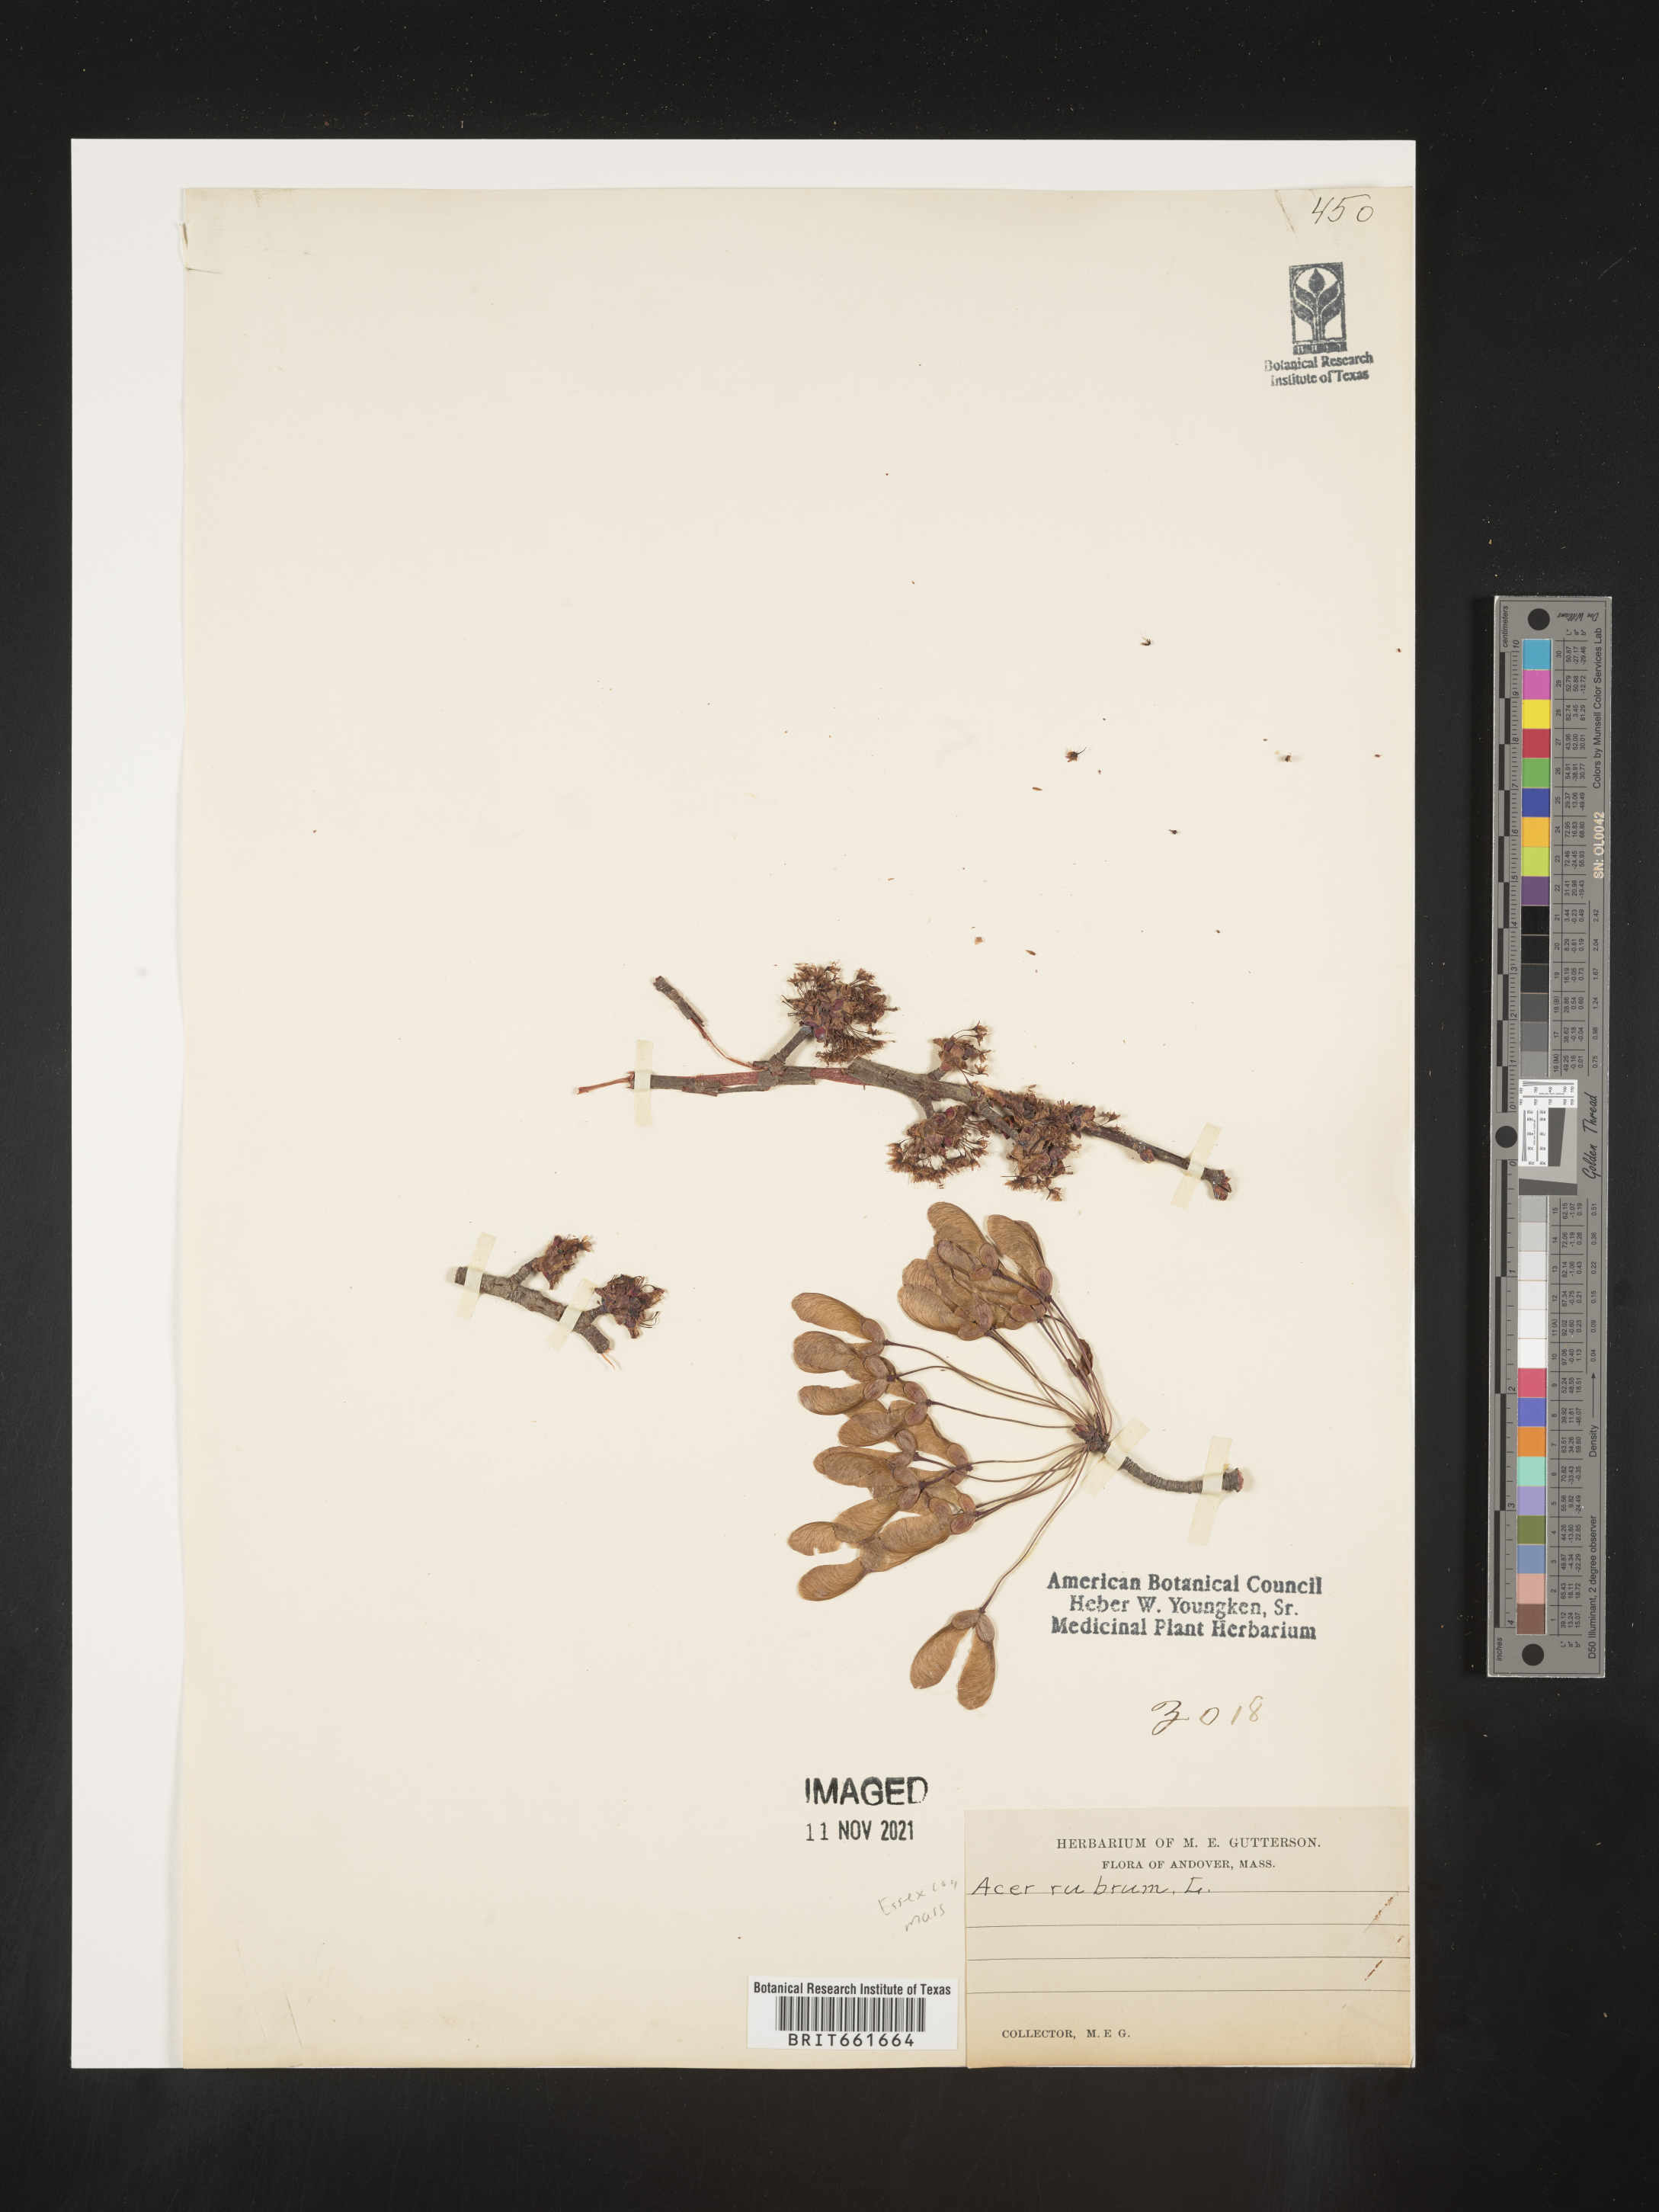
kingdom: Plantae
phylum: Tracheophyta
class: Magnoliopsida
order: Sapindales
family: Sapindaceae
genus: Acer
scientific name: Acer rubrum
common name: Red maple
